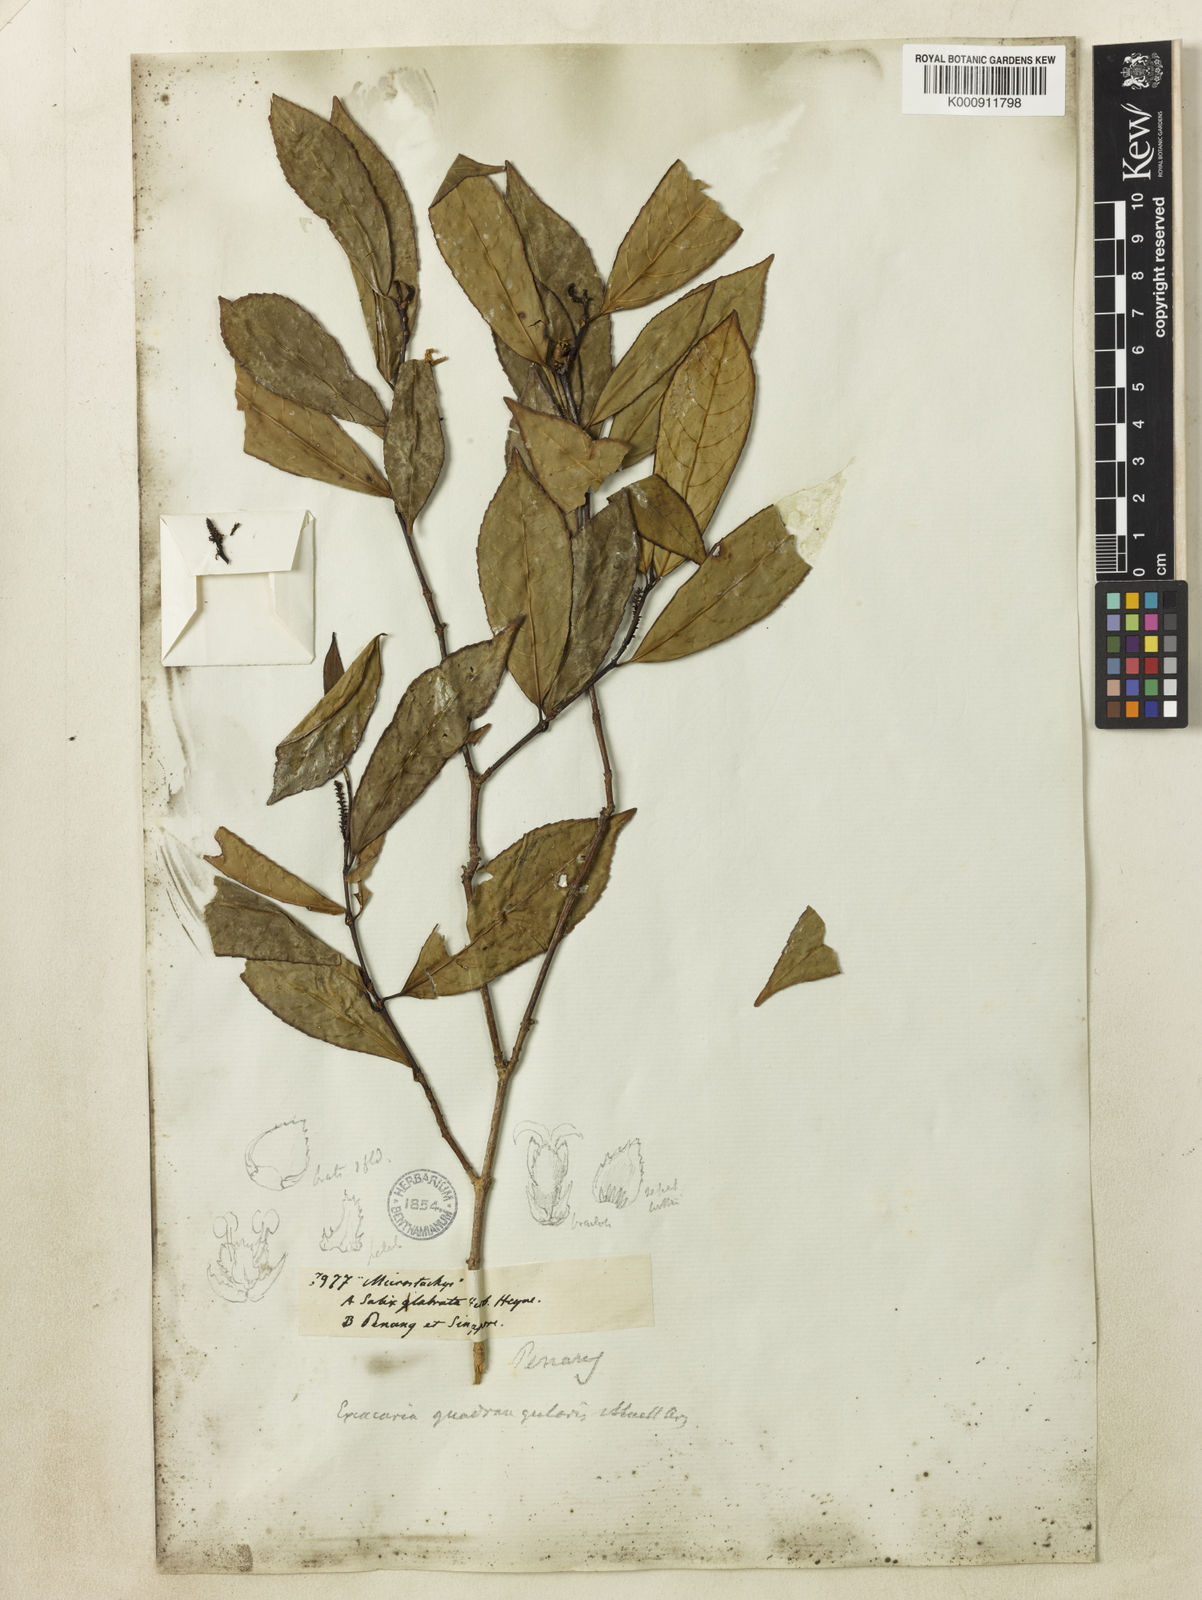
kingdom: Plantae
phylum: Tracheophyta
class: Magnoliopsida
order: Malpighiales
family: Euphorbiaceae
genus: Excoecaria
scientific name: Excoecaria cochinchinensis
